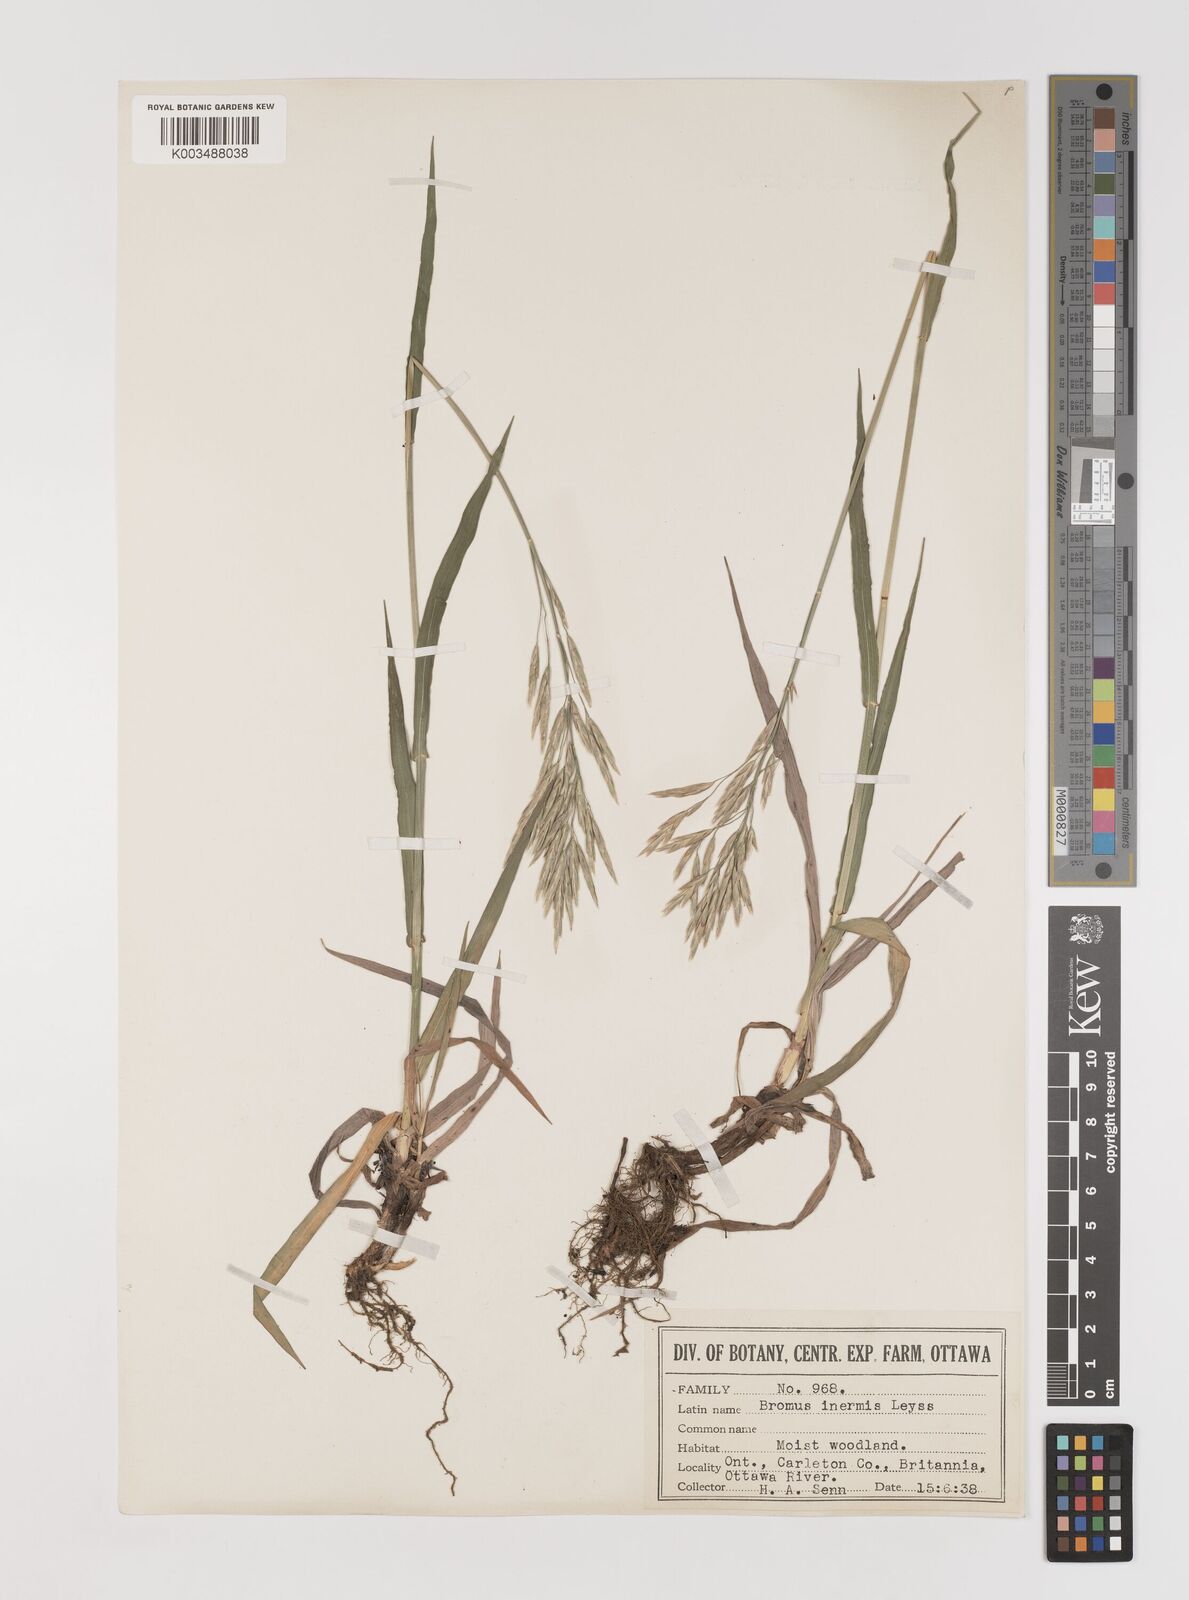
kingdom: Plantae
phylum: Tracheophyta
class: Liliopsida
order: Poales
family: Poaceae
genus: Bromus
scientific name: Bromus inermis
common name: Smooth brome
